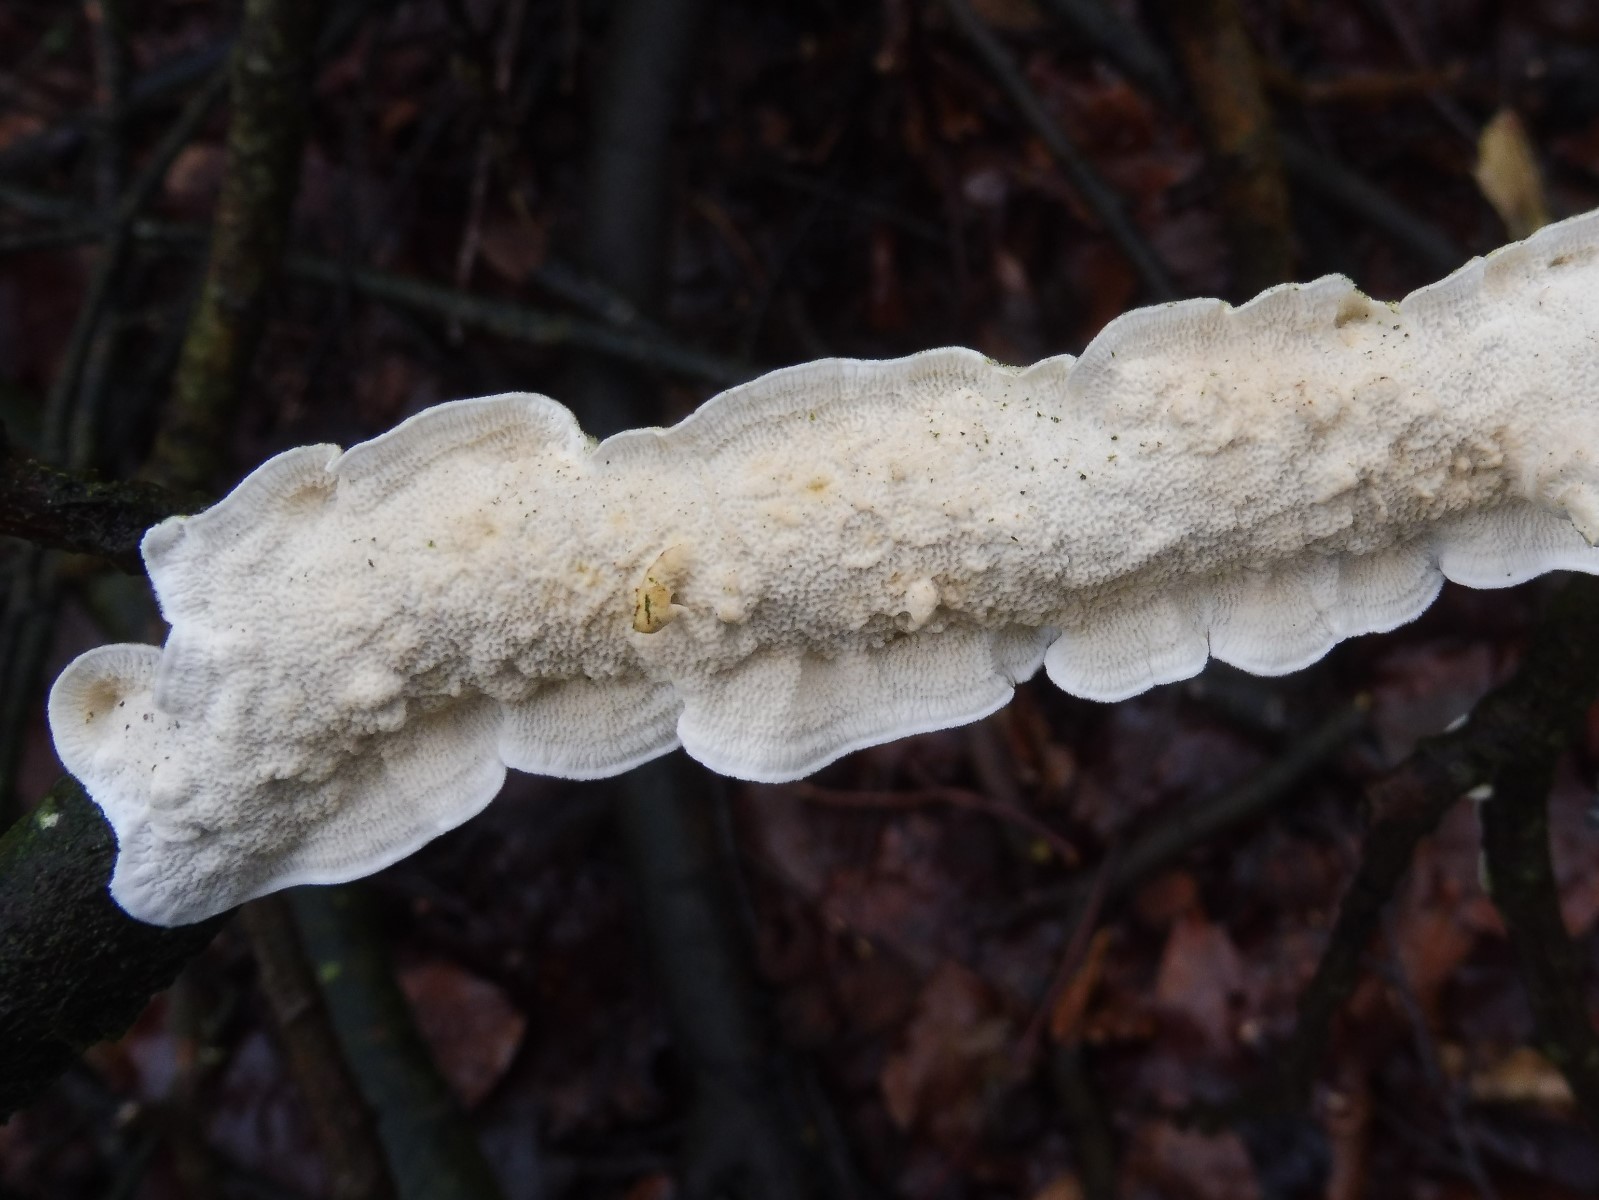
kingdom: Fungi
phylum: Basidiomycota
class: Agaricomycetes
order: Polyporales
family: Irpicaceae
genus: Byssomerulius
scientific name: Byssomerulius corium
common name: læder-åresvamp
